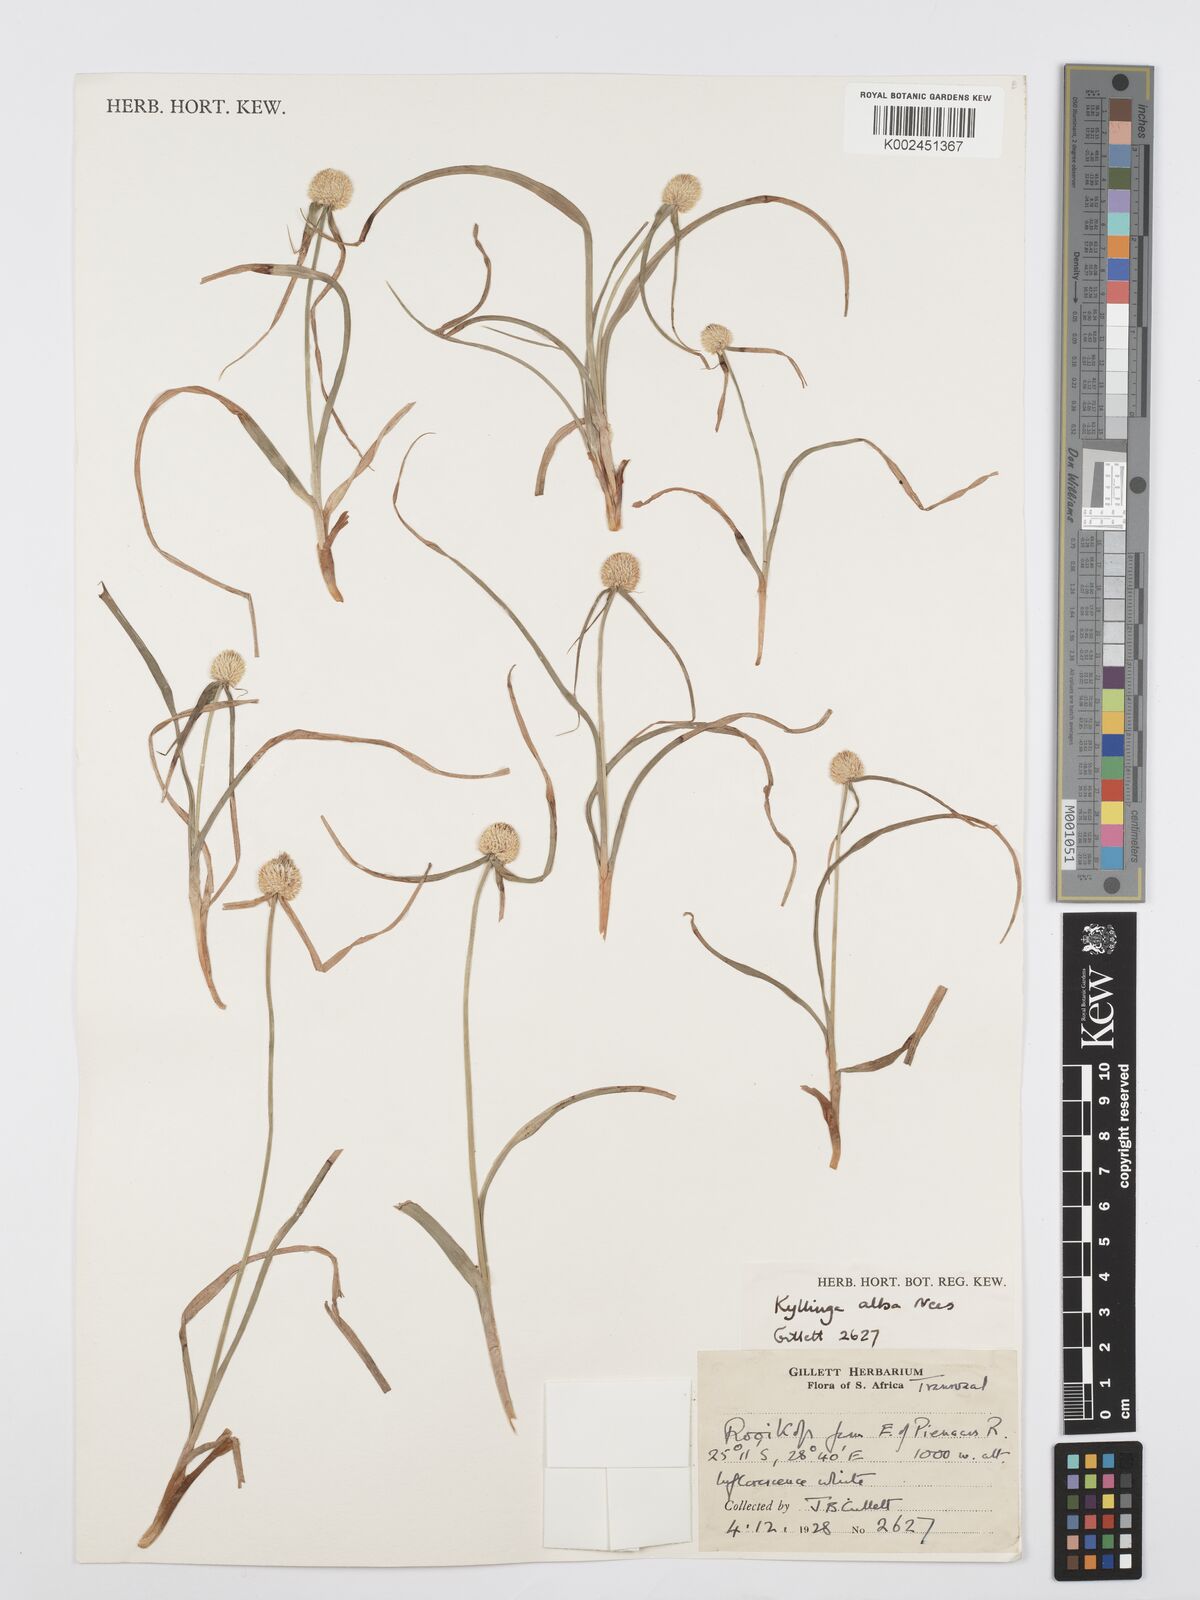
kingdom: Plantae
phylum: Tracheophyta
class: Liliopsida
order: Poales
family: Cyperaceae
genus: Cyperus
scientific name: Cyperus
